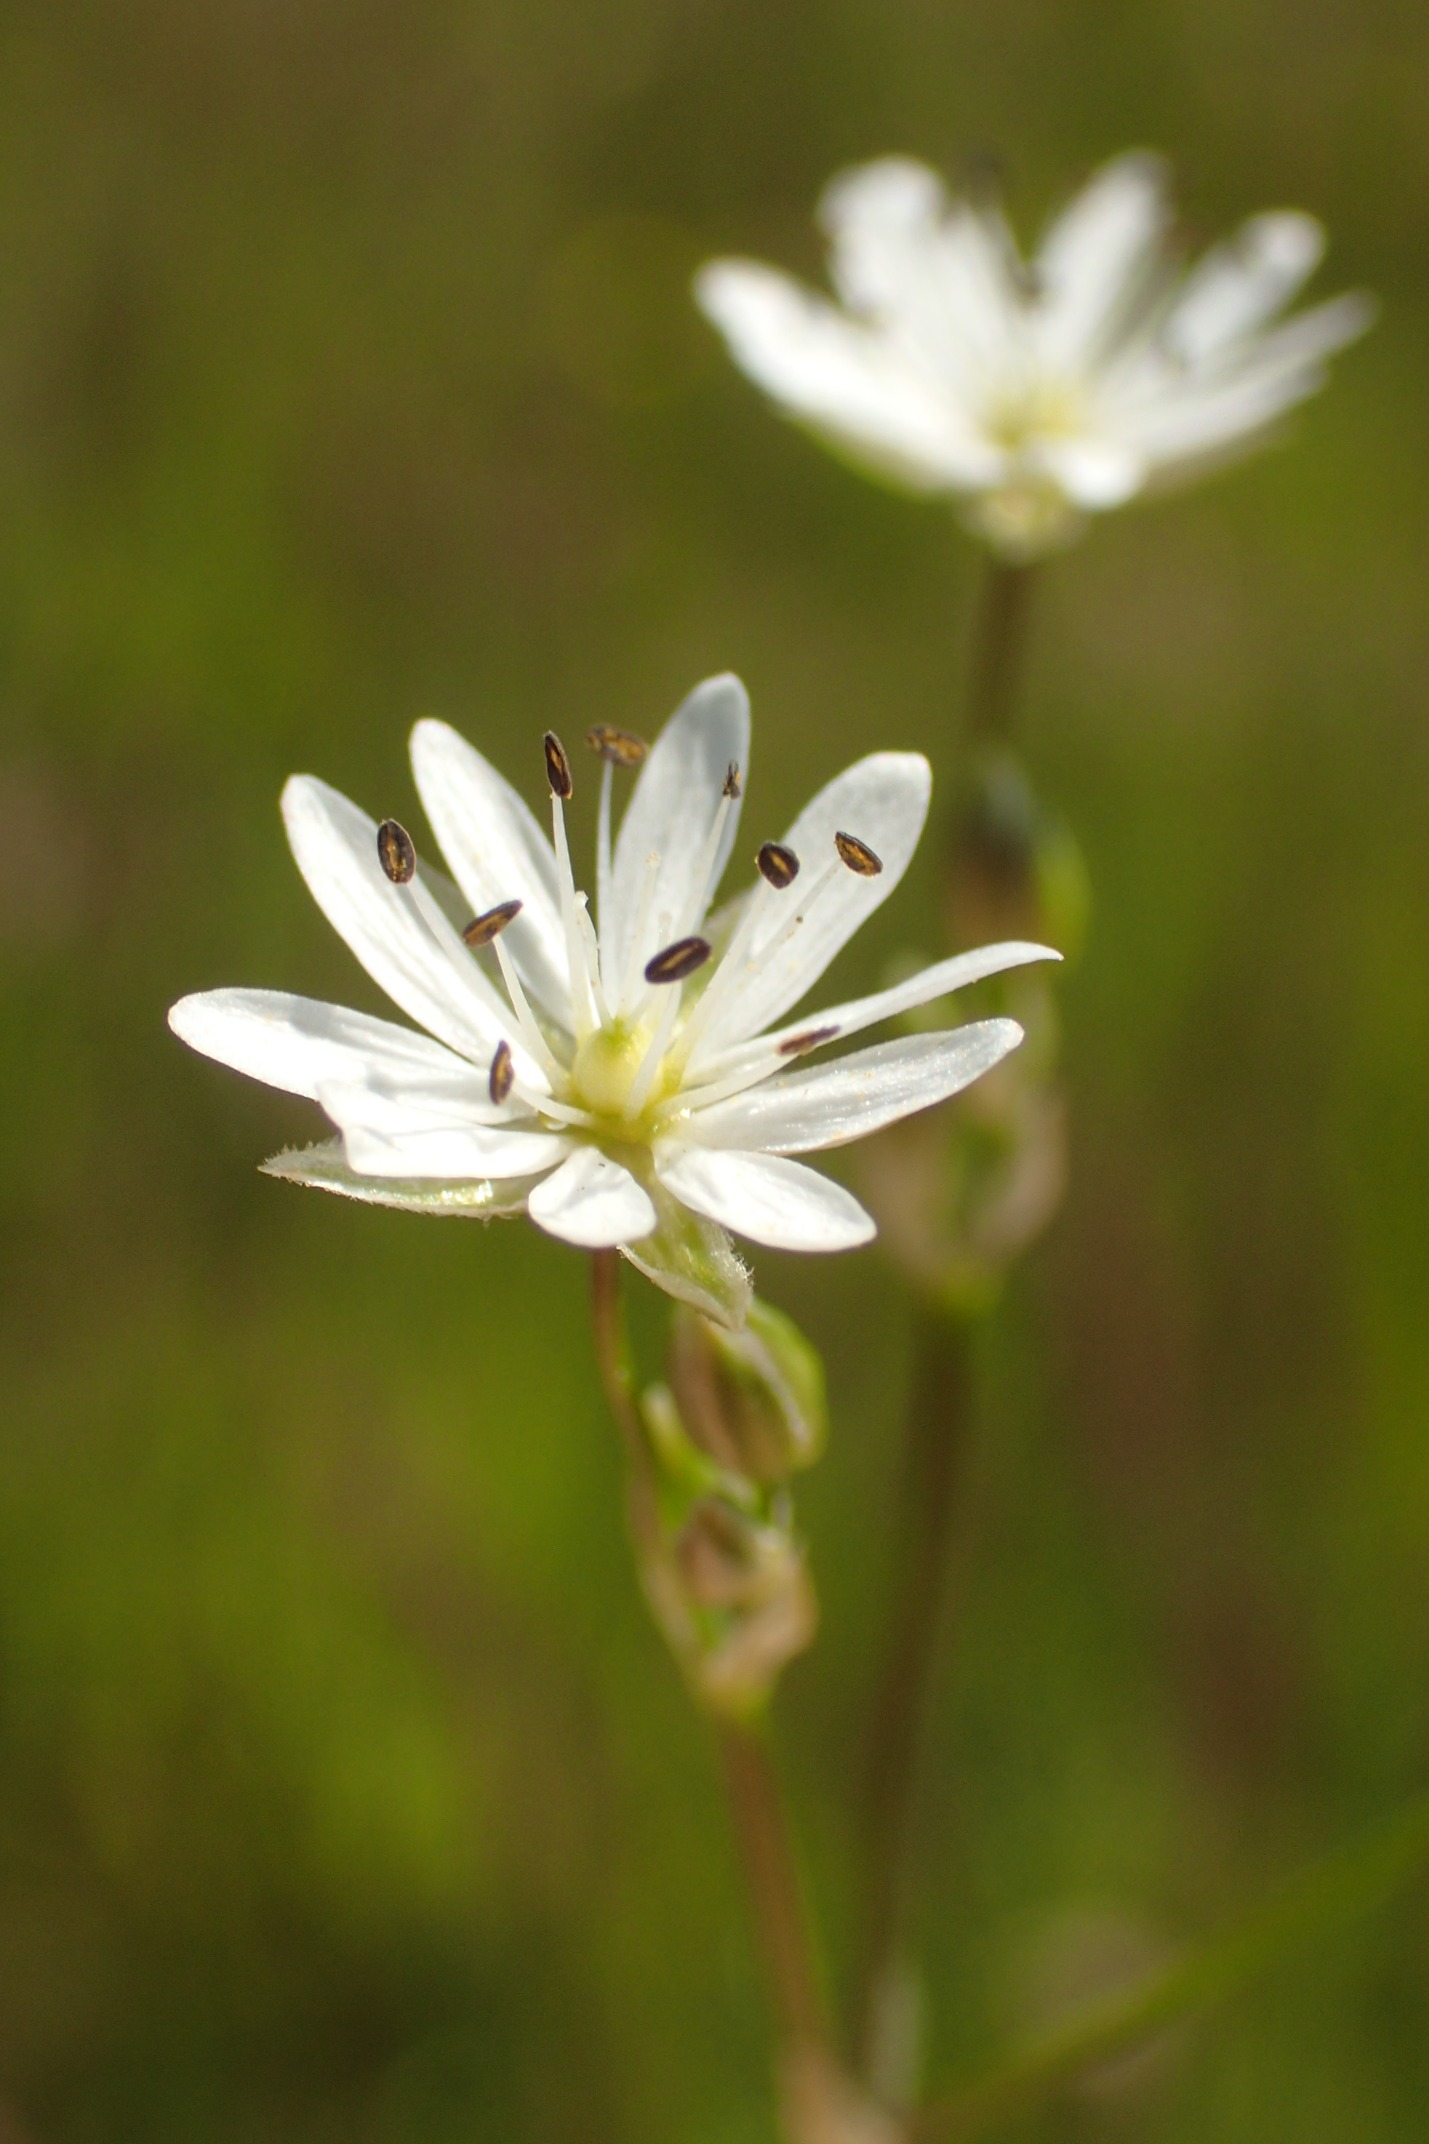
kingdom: Plantae
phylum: Tracheophyta
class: Magnoliopsida
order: Caryophyllales
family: Caryophyllaceae
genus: Stellaria
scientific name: Stellaria graminea
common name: Græsbladet fladstjerne
